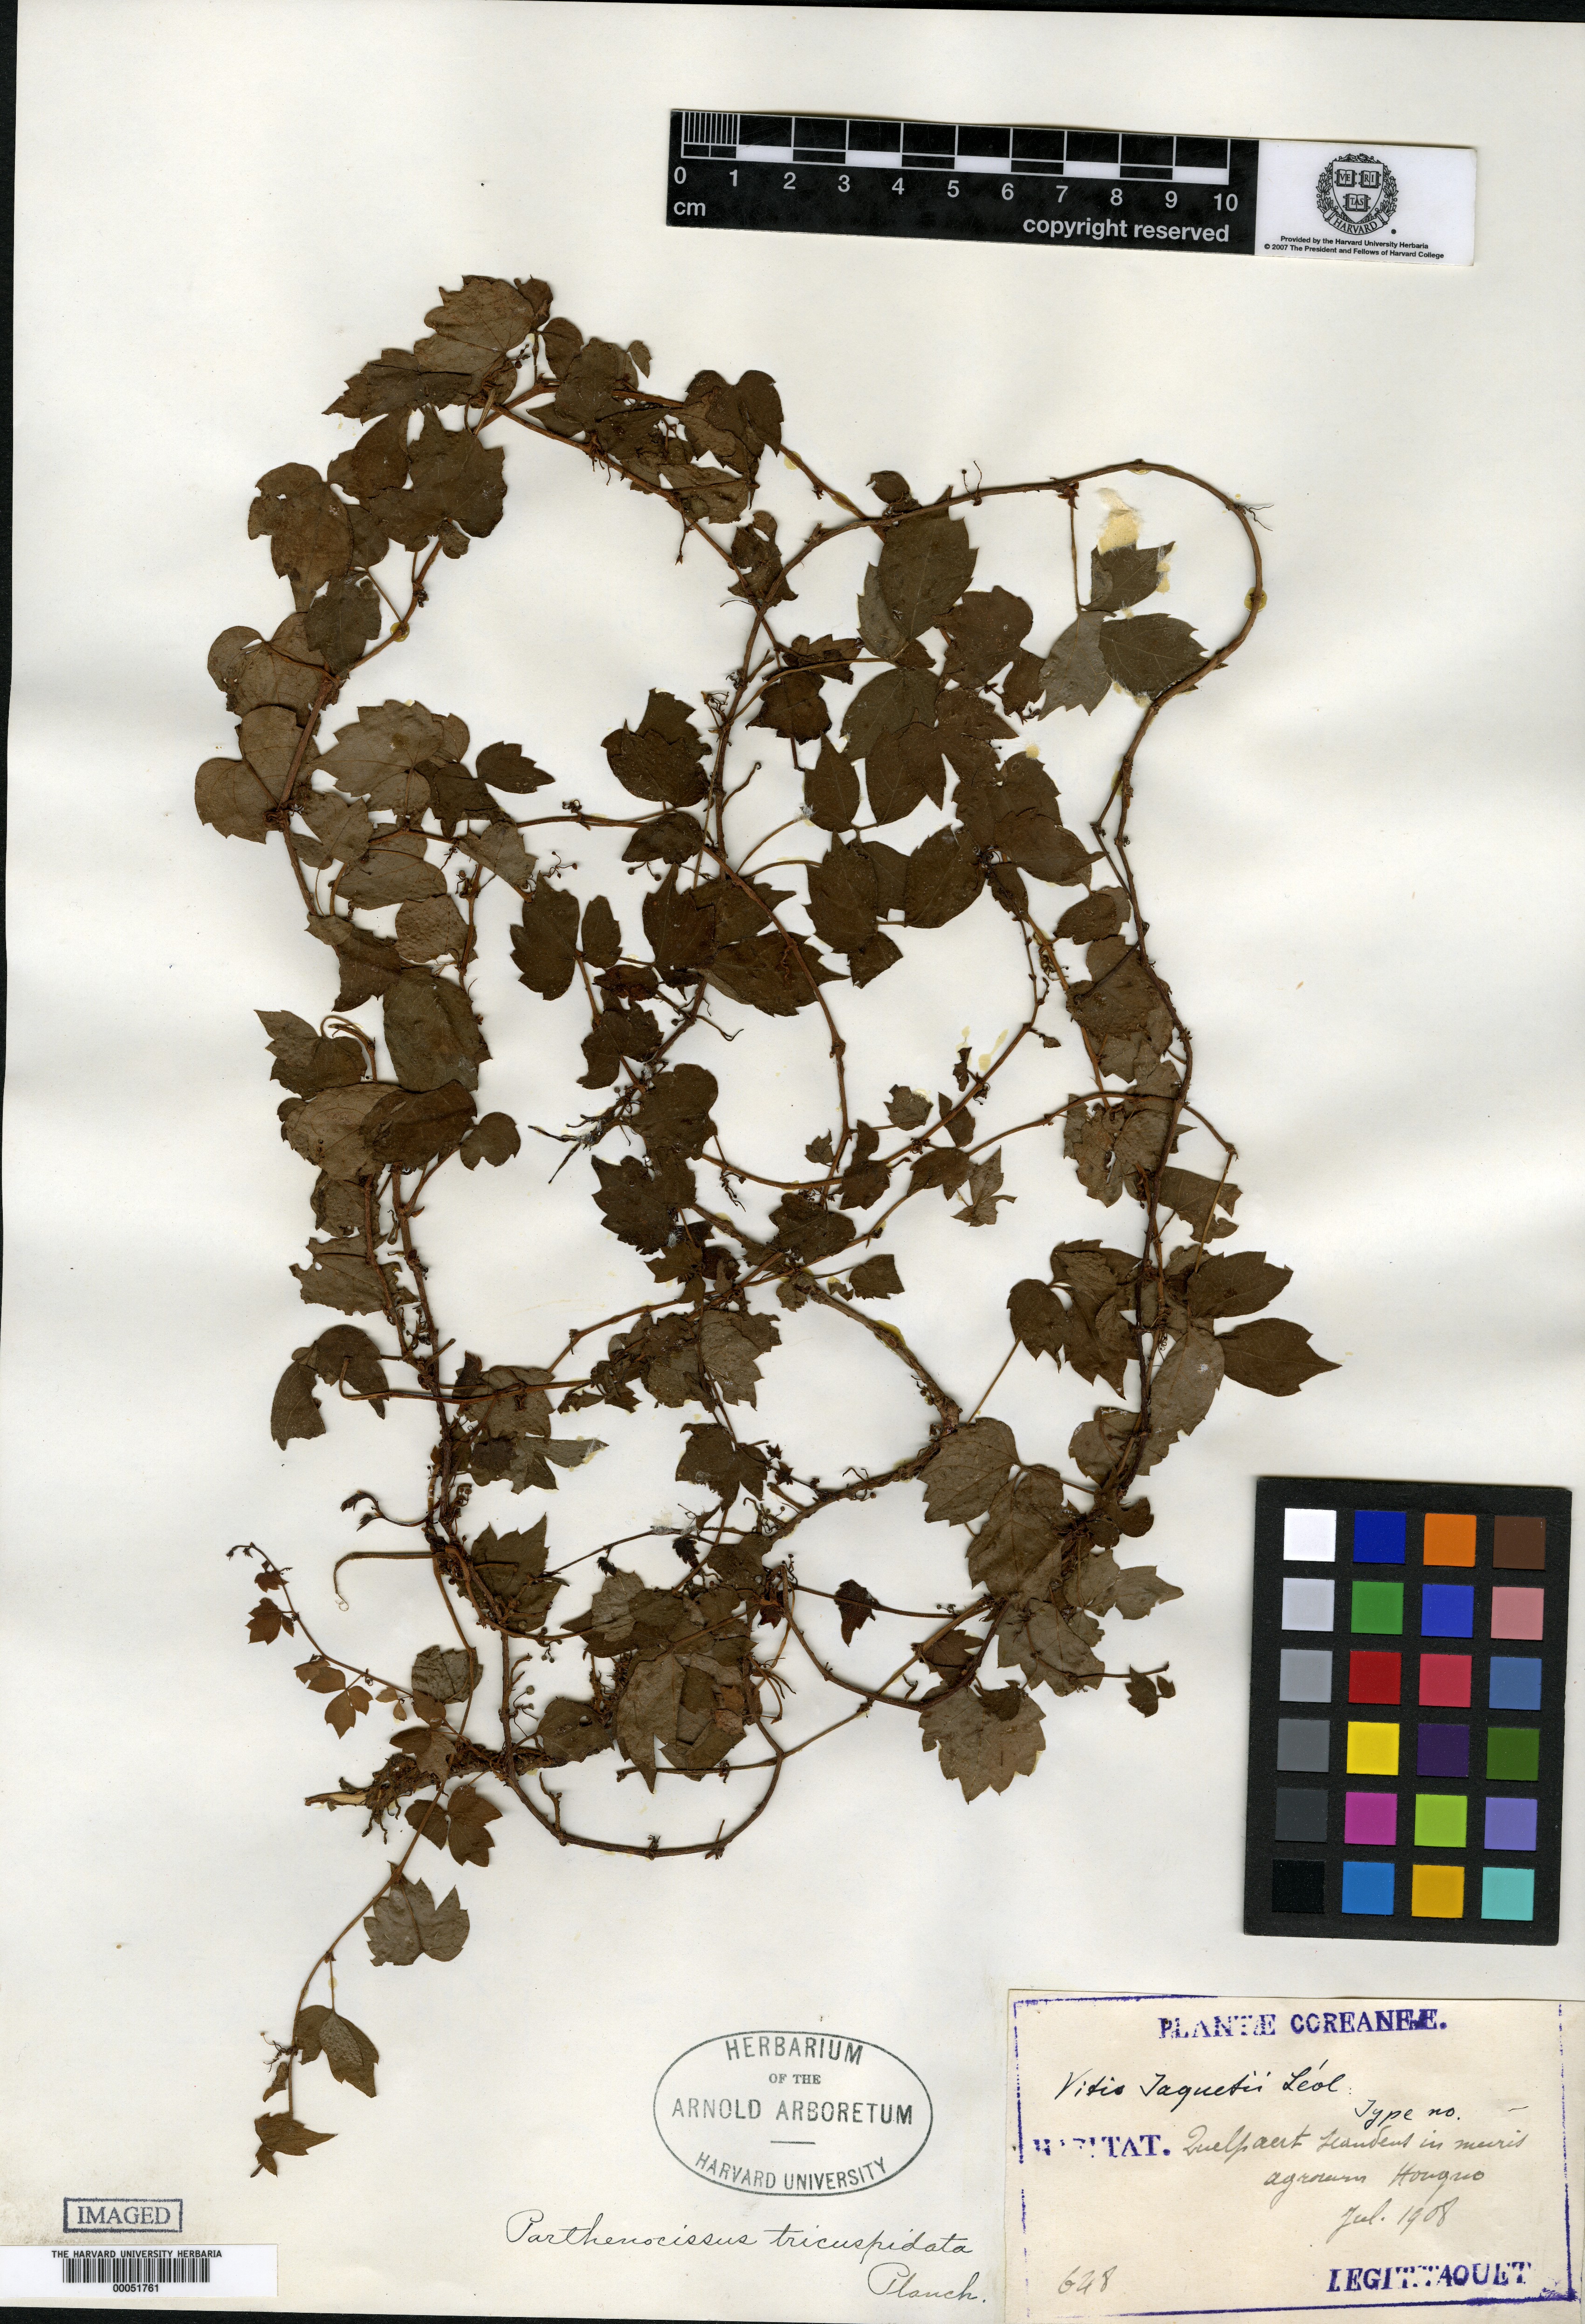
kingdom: Plantae
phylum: Tracheophyta
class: Magnoliopsida
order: Vitales
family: Vitaceae
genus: Parthenocissus
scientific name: Parthenocissus tricuspidata
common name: Boston ivy
